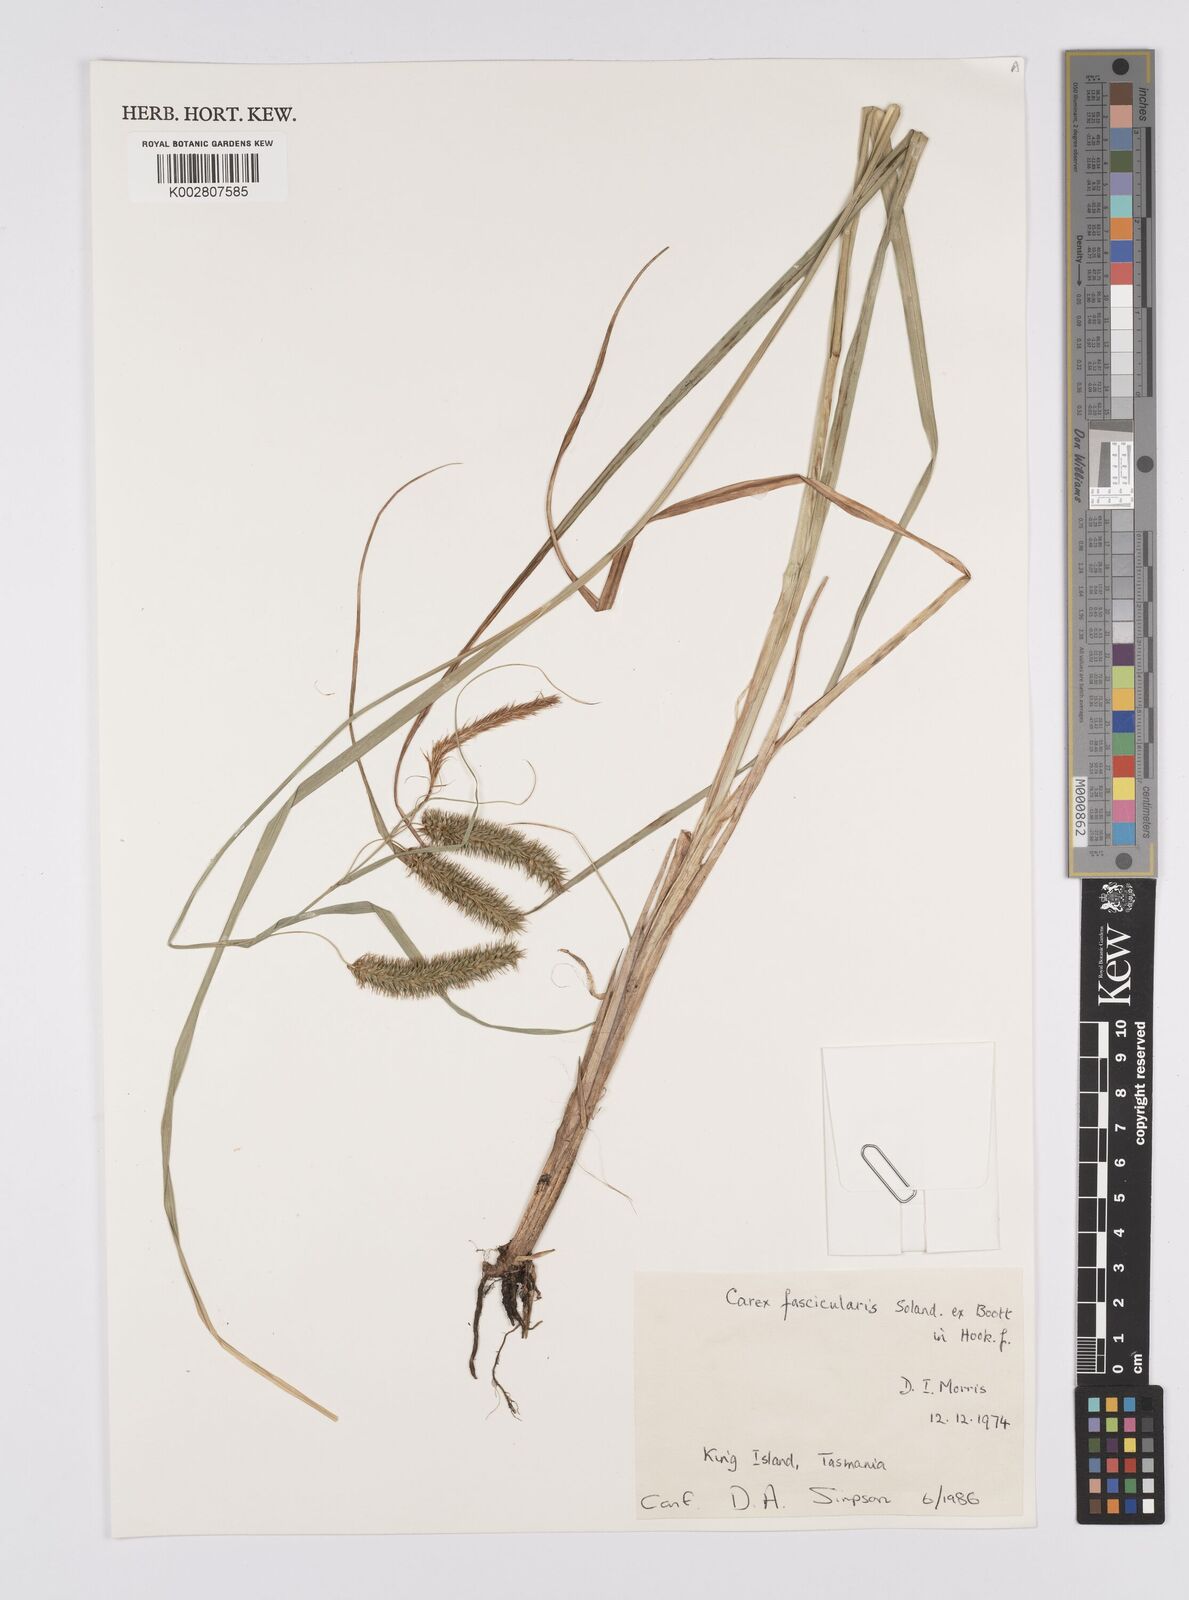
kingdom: Plantae
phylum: Tracheophyta
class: Liliopsida
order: Poales
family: Cyperaceae
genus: Carex
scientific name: Carex fascicularis
